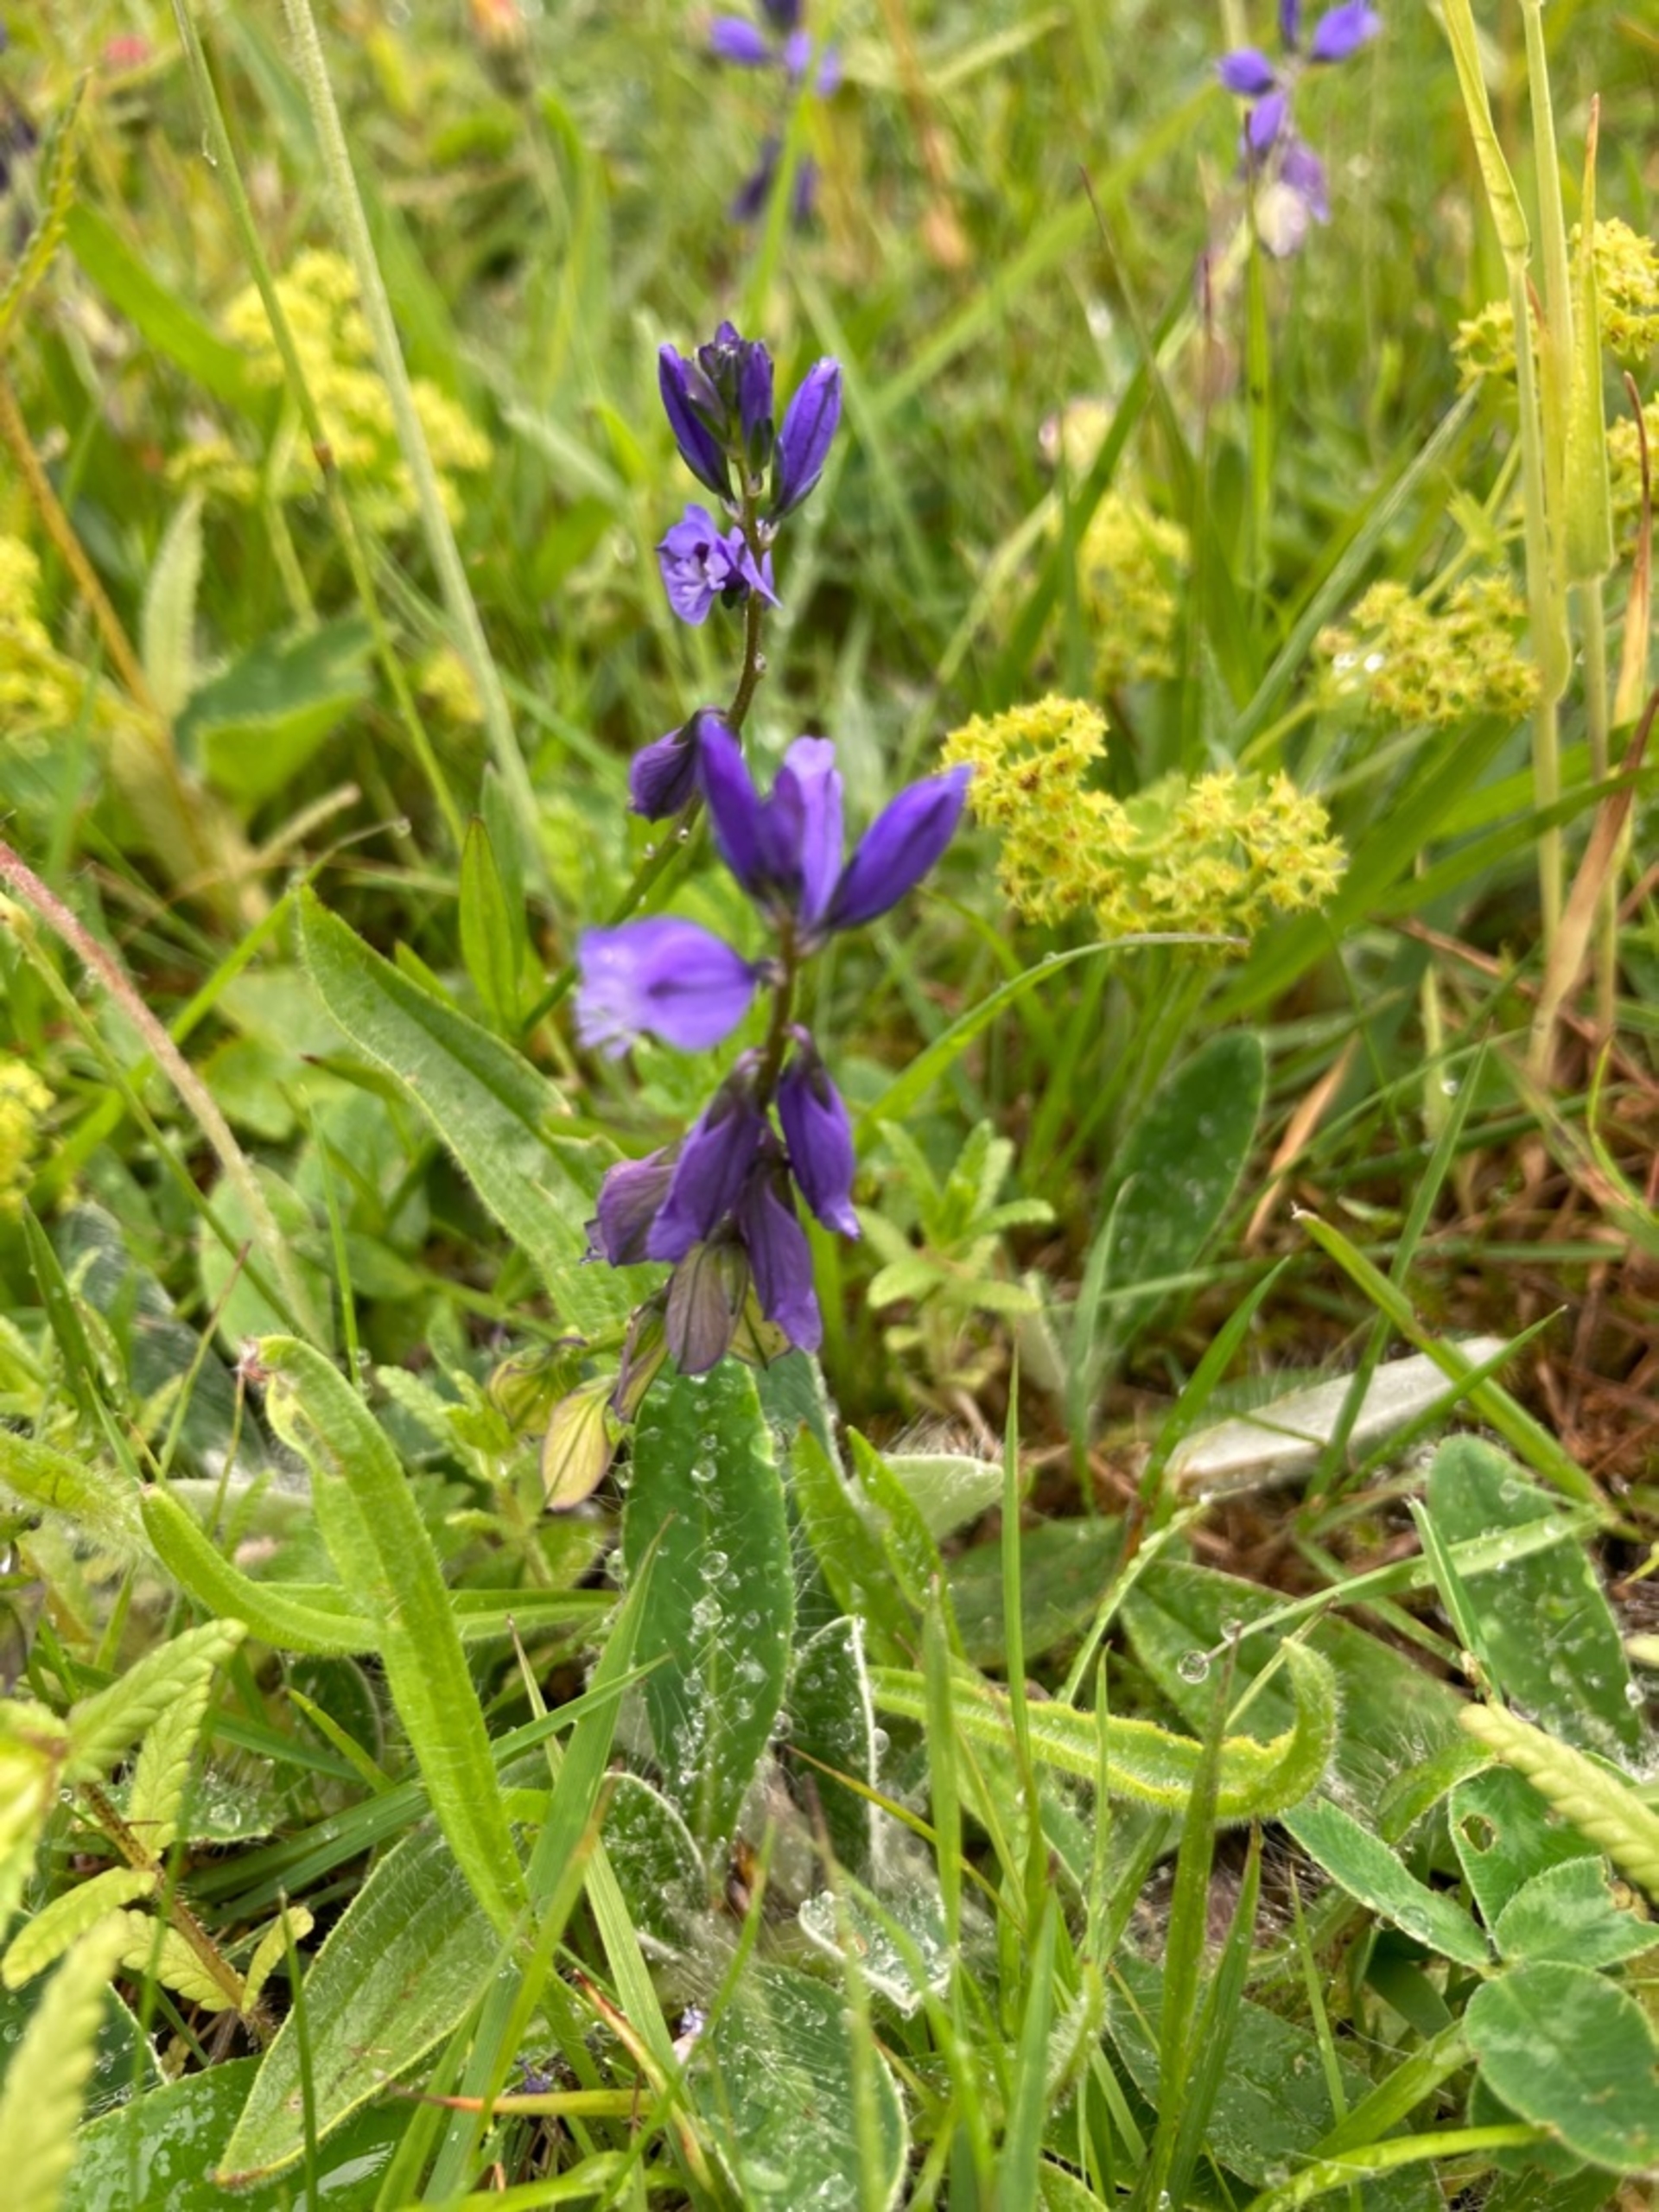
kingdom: Plantae
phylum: Tracheophyta
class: Magnoliopsida
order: Fabales
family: Polygalaceae
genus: Polygala
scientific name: Polygala vulgaris
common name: Almindelig mælkeurt
